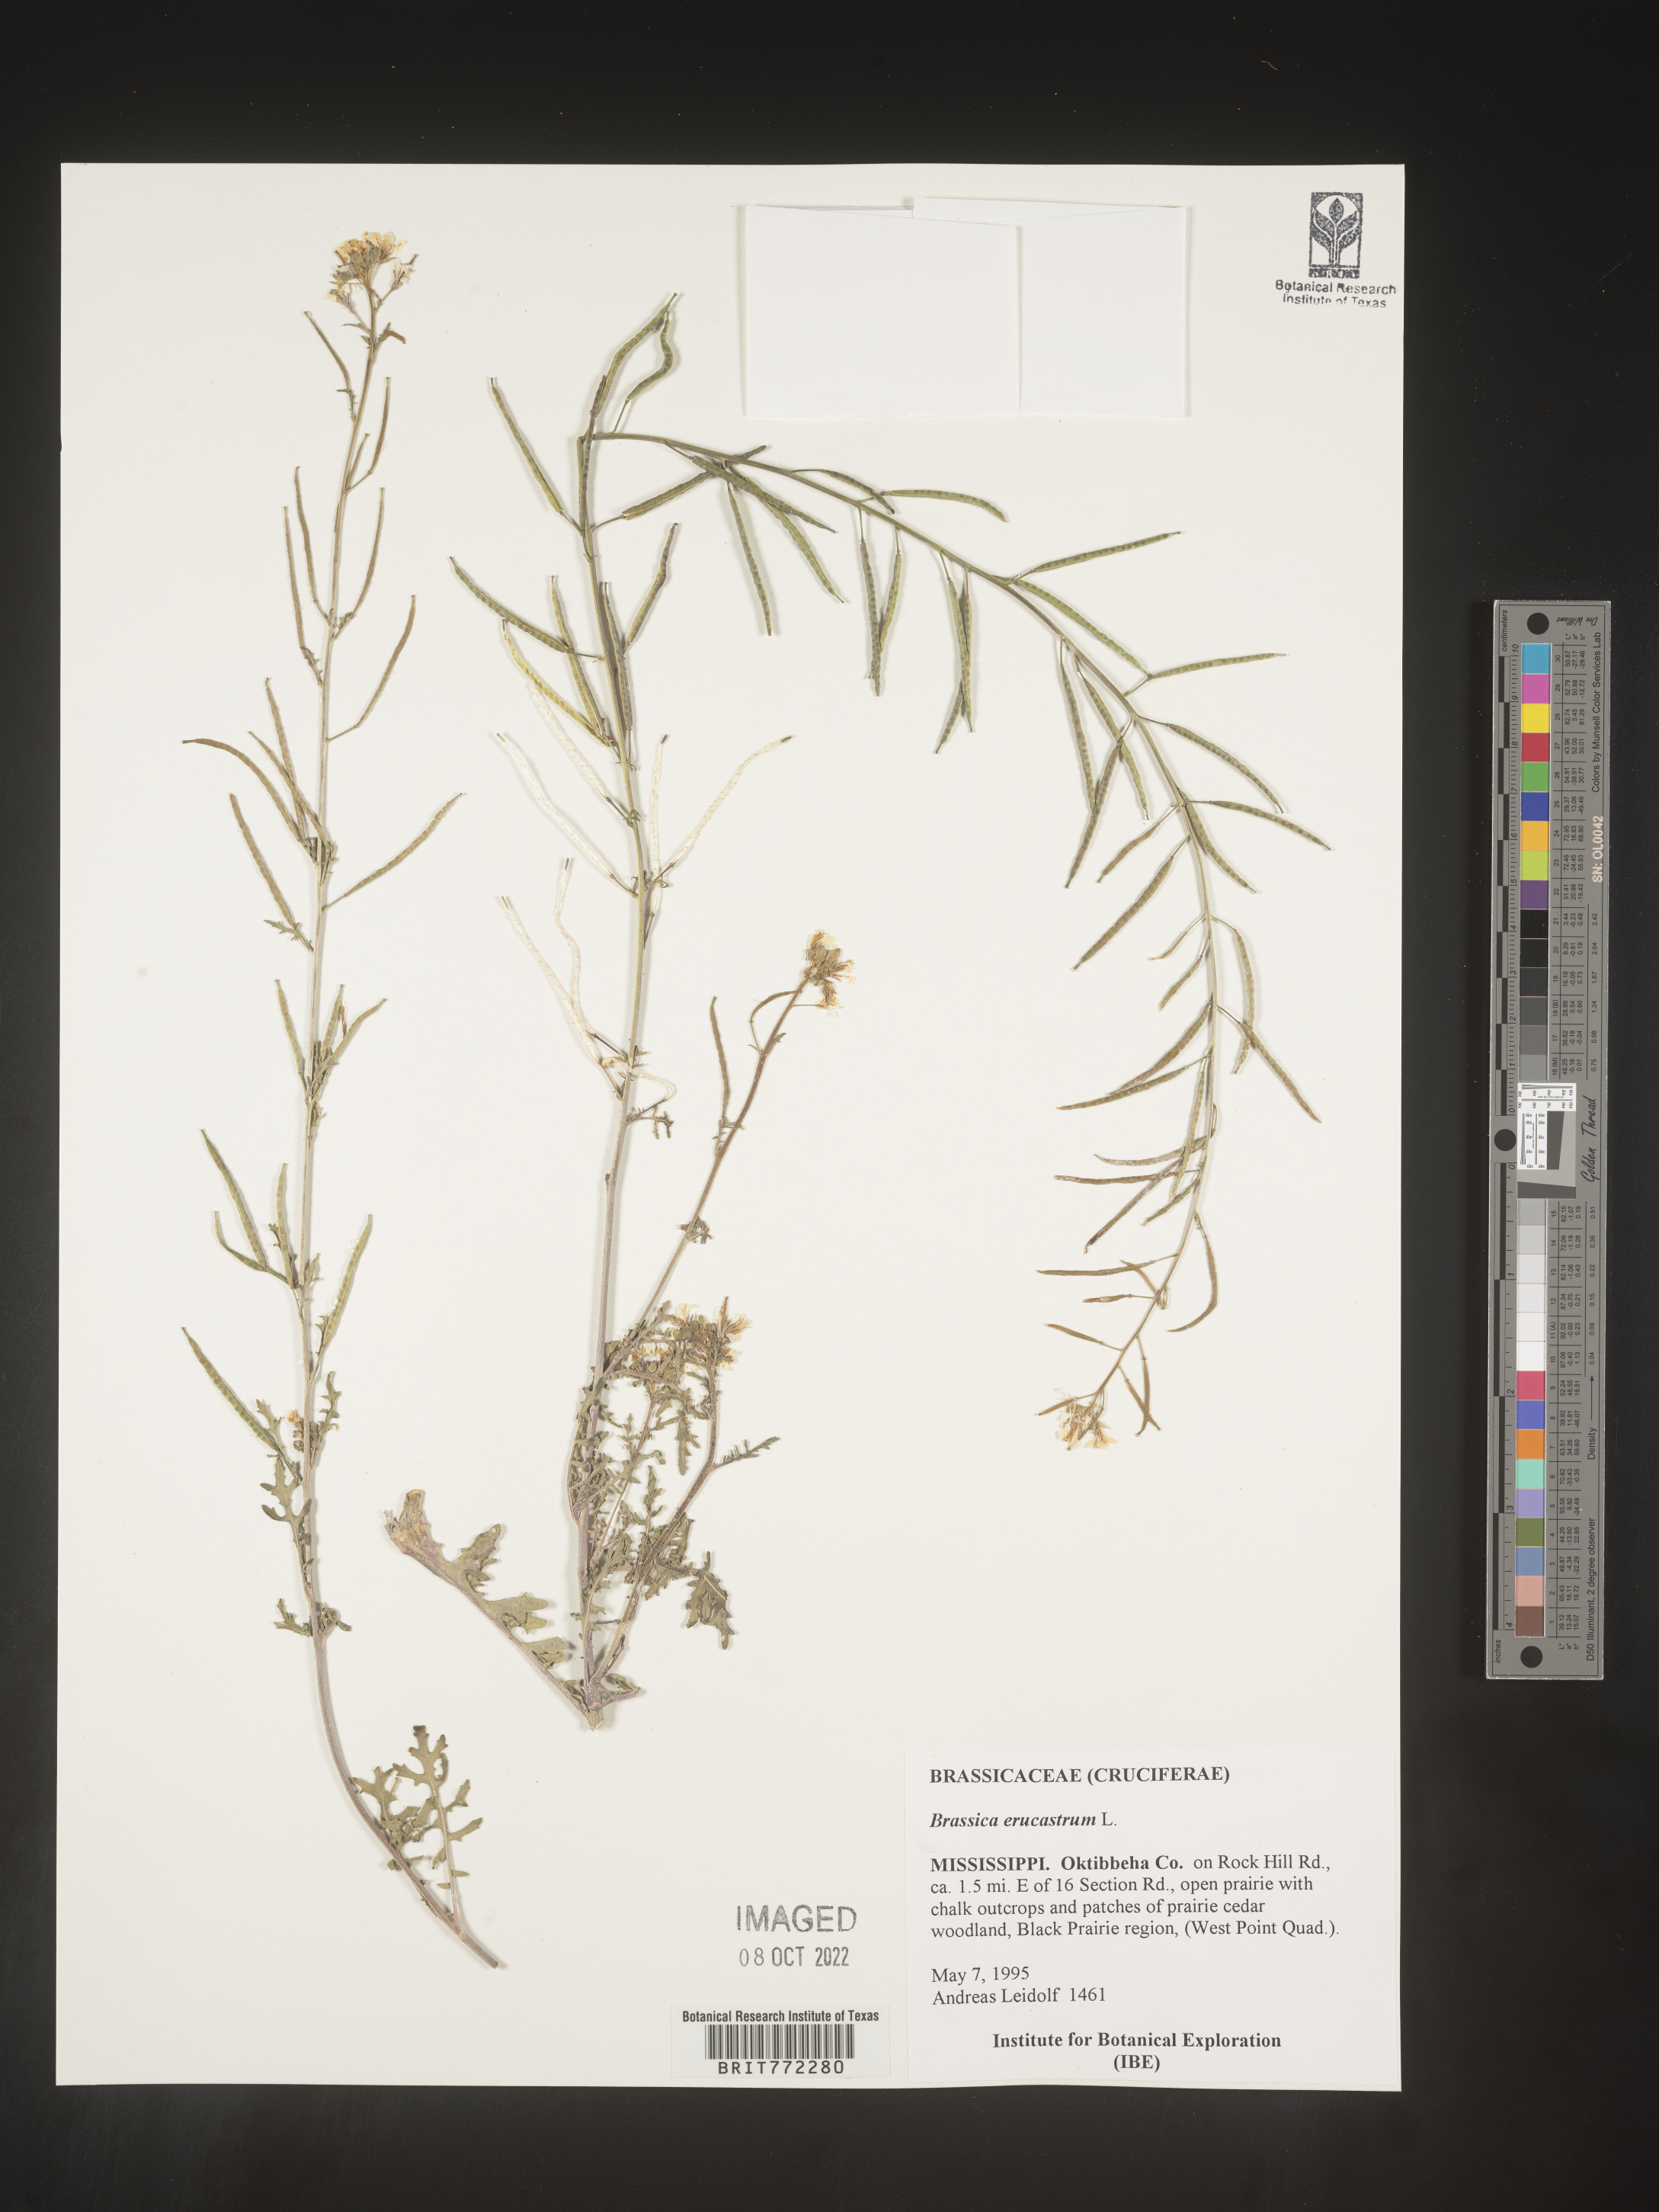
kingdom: Plantae
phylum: Tracheophyta
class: Magnoliopsida
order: Brassicales
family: Brassicaceae
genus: Brassica
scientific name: Brassica
